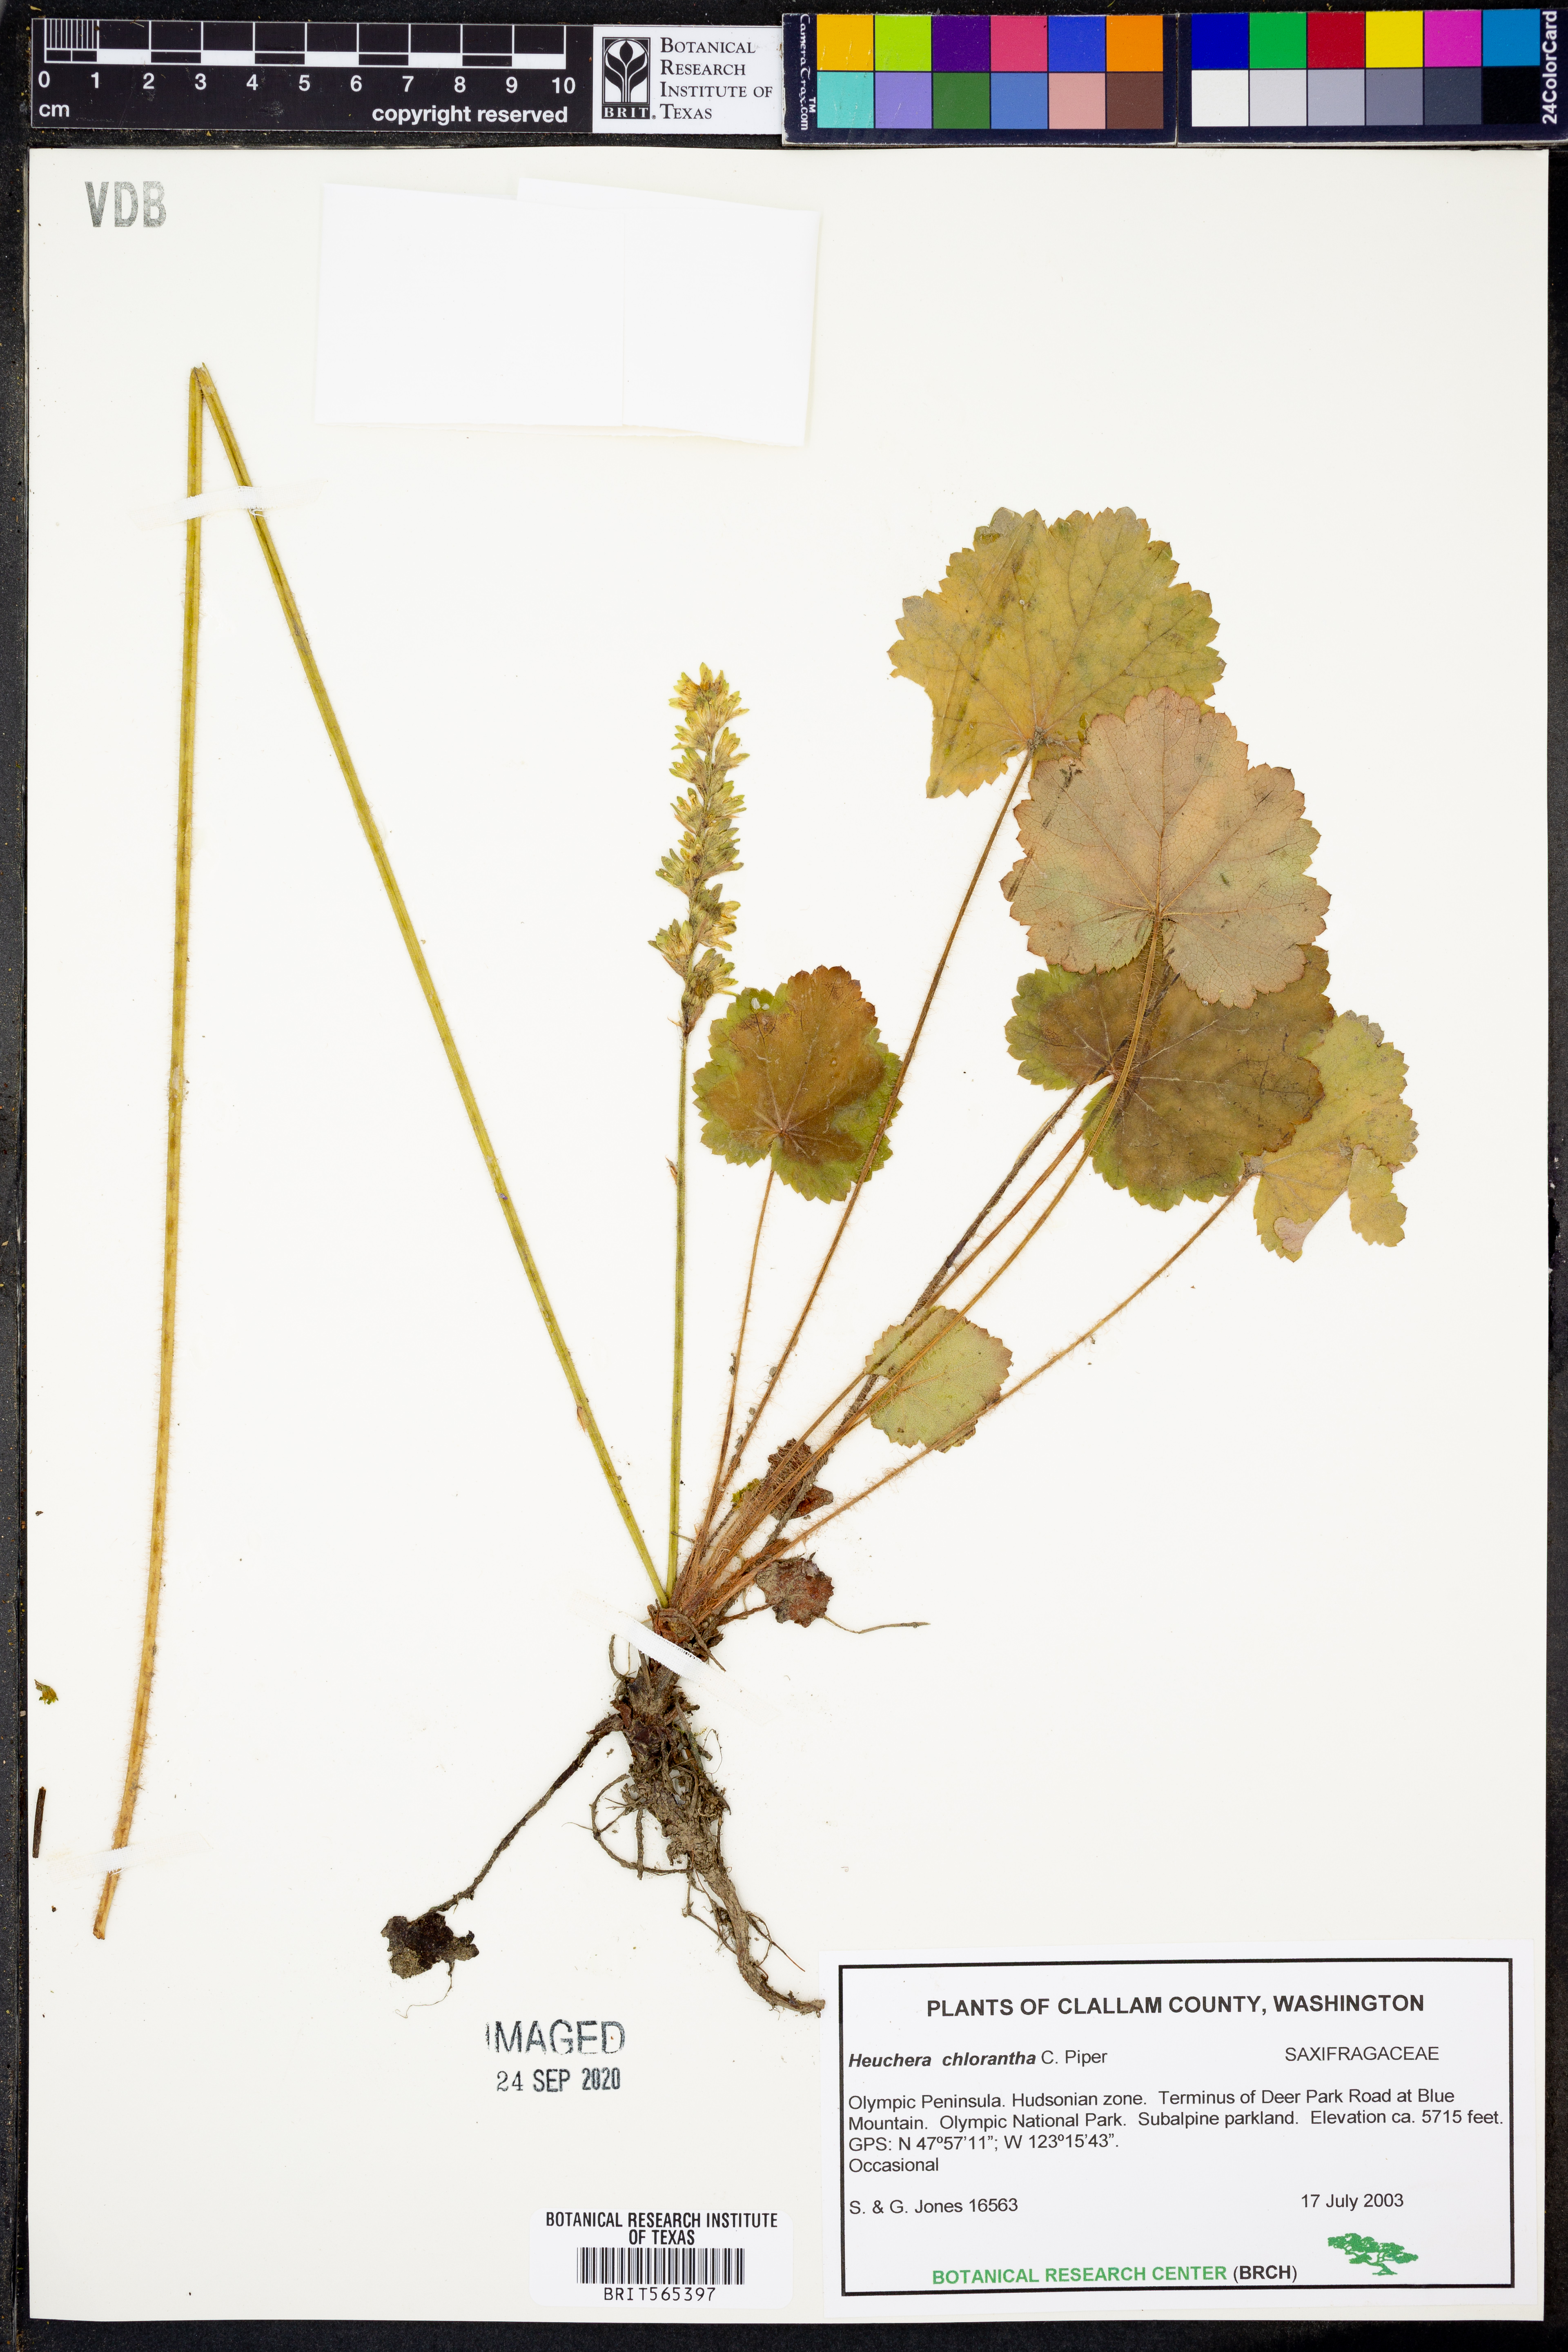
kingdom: Plantae
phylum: Tracheophyta
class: Magnoliopsida
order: Saxifragales
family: Saxifragaceae
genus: Heuchera
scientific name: Heuchera chlorantha
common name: Meadow alumroot
